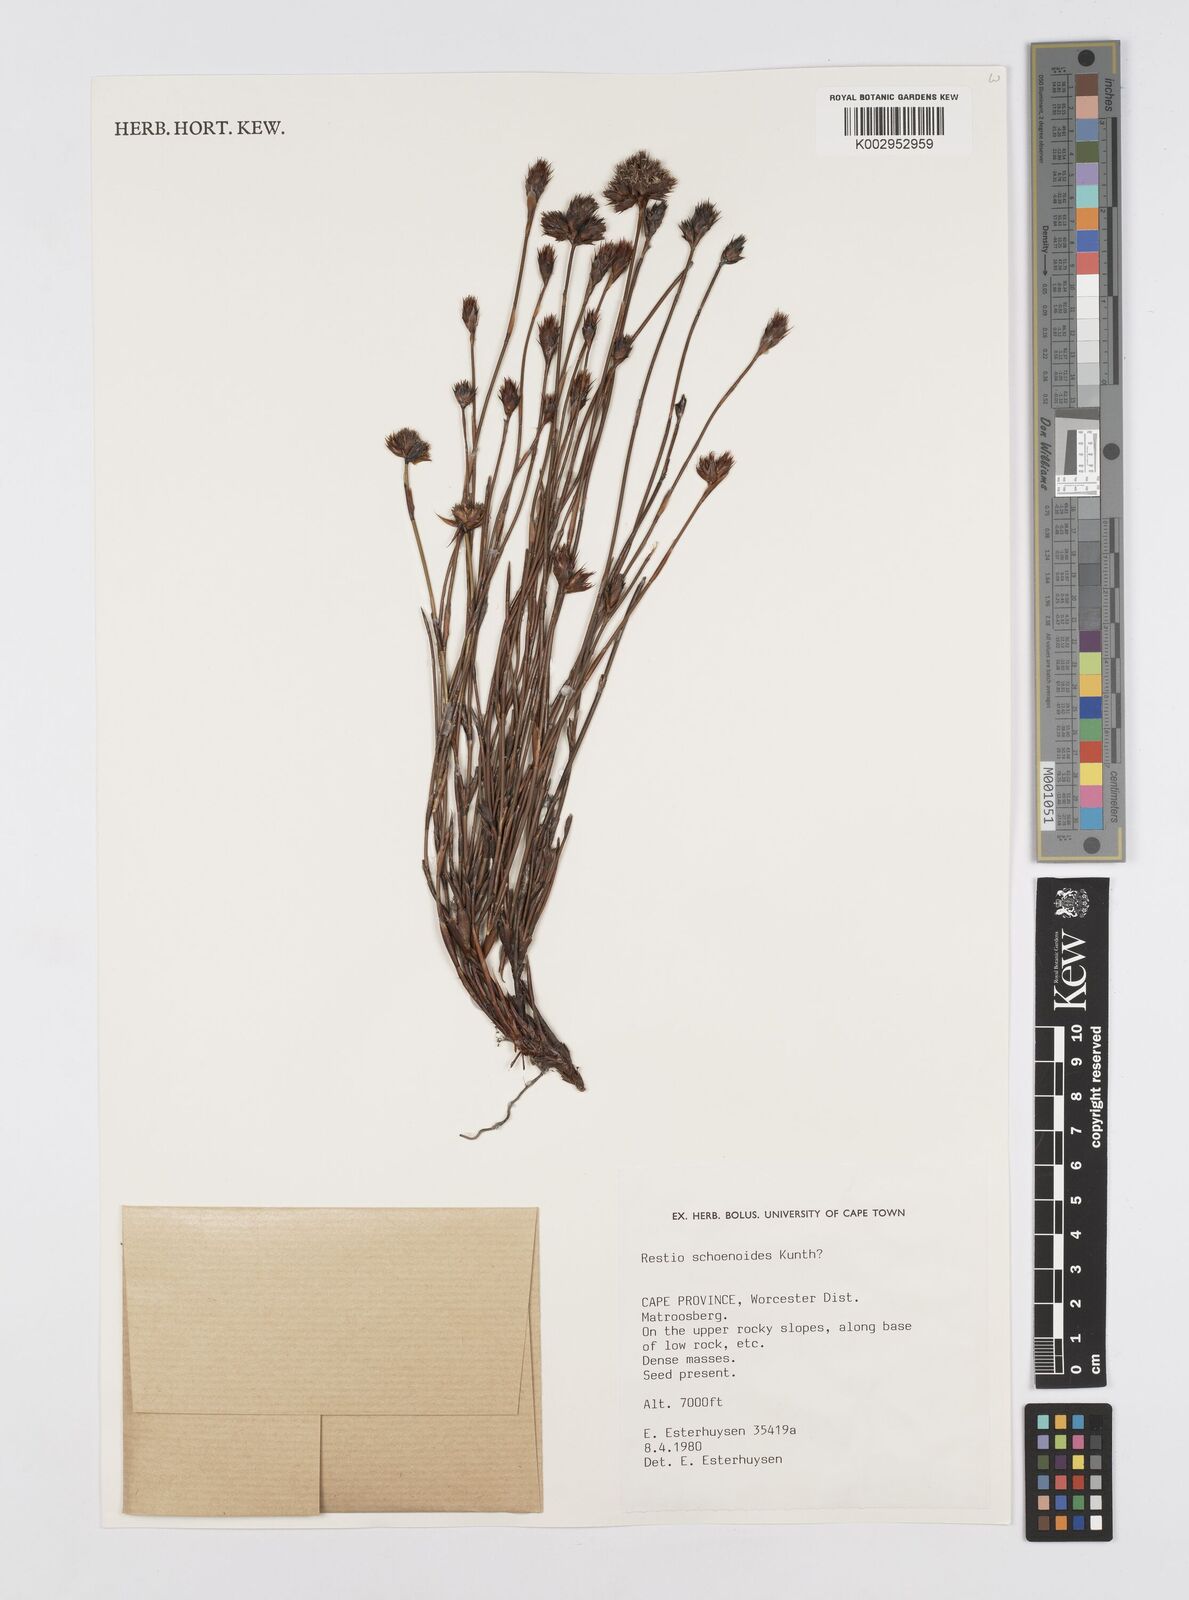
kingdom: Plantae
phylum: Tracheophyta
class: Liliopsida
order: Poales
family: Restionaceae
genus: Restio
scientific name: Restio schoenoides
